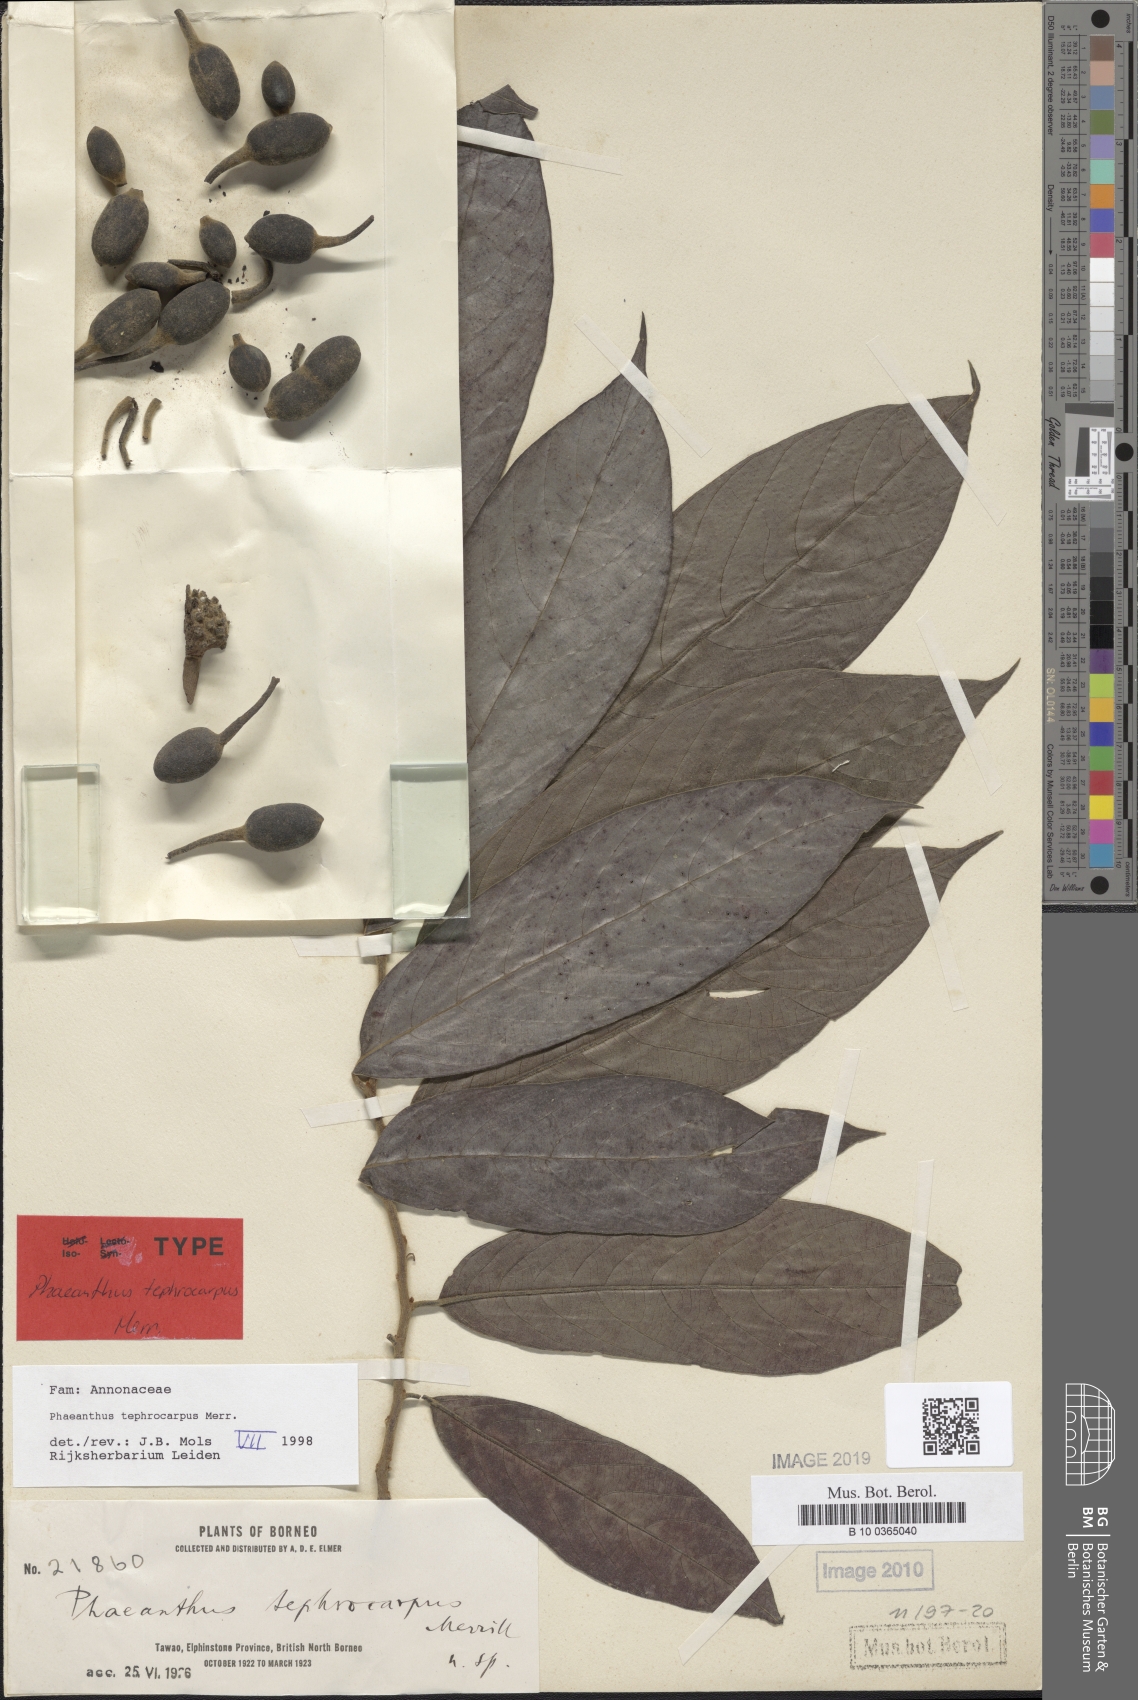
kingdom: Plantae
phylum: Tracheophyta
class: Magnoliopsida
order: Magnoliales
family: Annonaceae
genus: Phaeanthus
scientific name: Phaeanthus tephrocarpus
